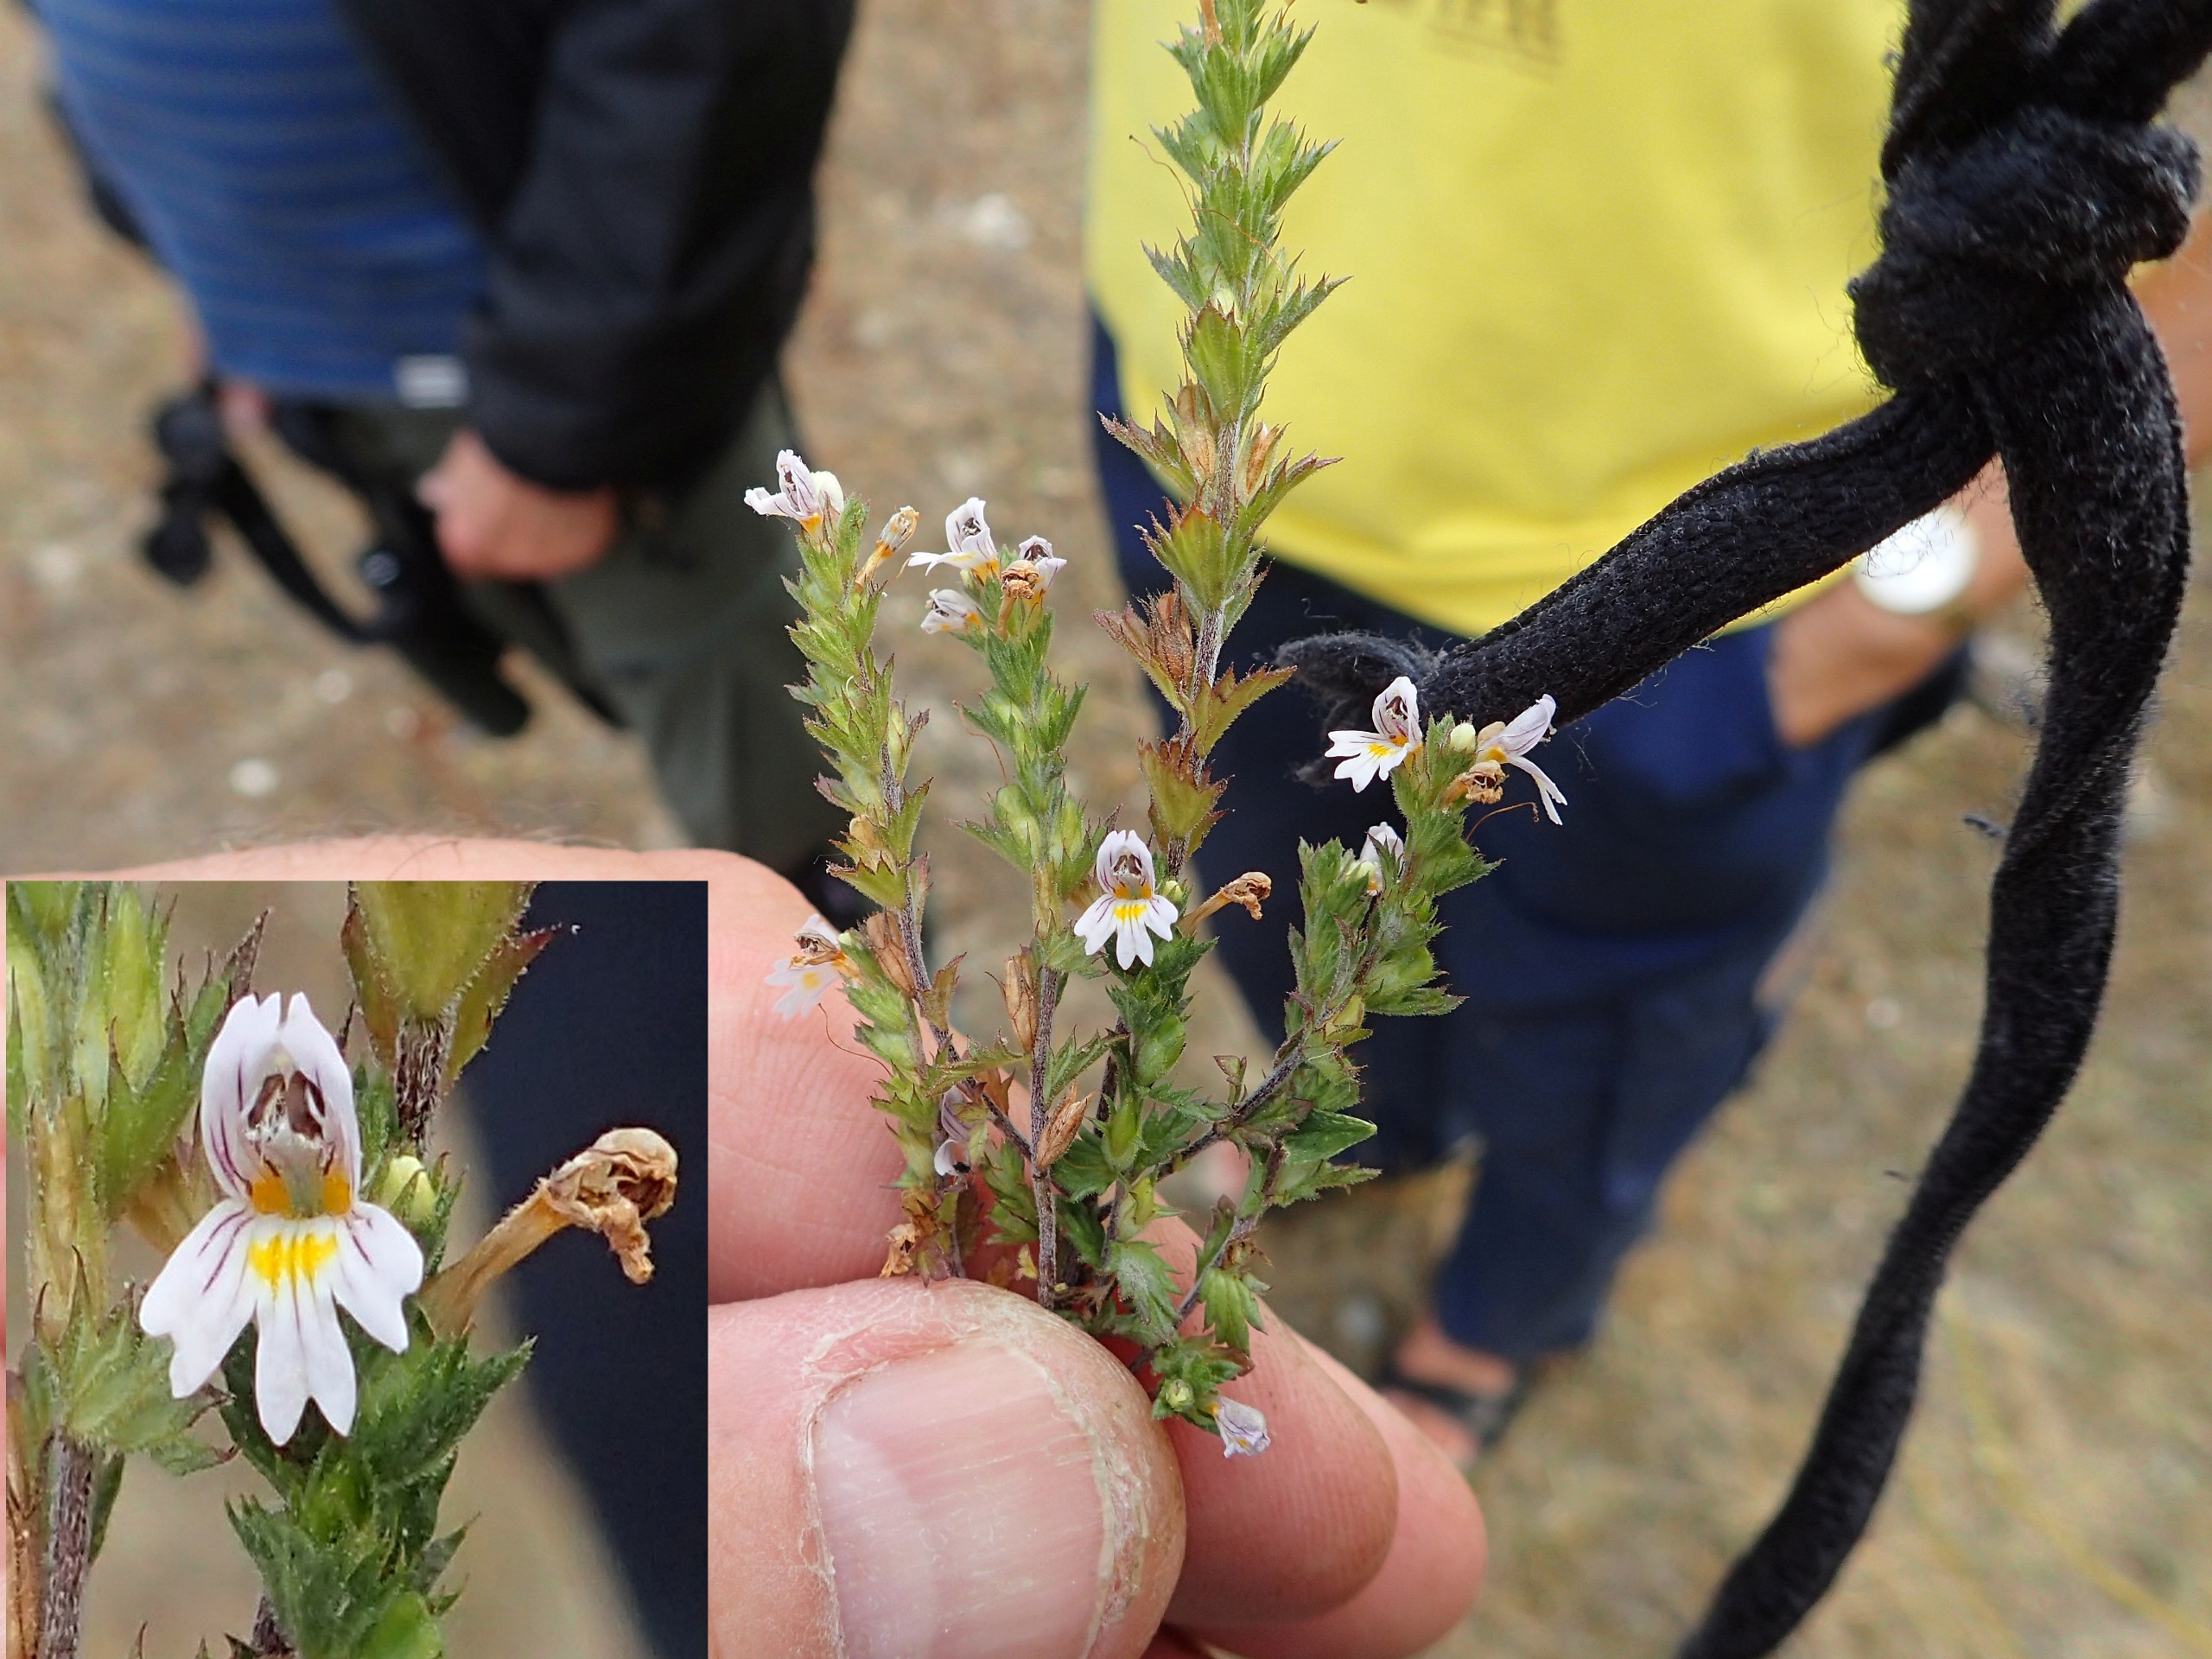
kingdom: Plantae
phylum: Tracheophyta
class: Magnoliopsida
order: Lamiales
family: Orobanchaceae
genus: Euphrasia
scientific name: Euphrasia stricta
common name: Spids øjentrøst
